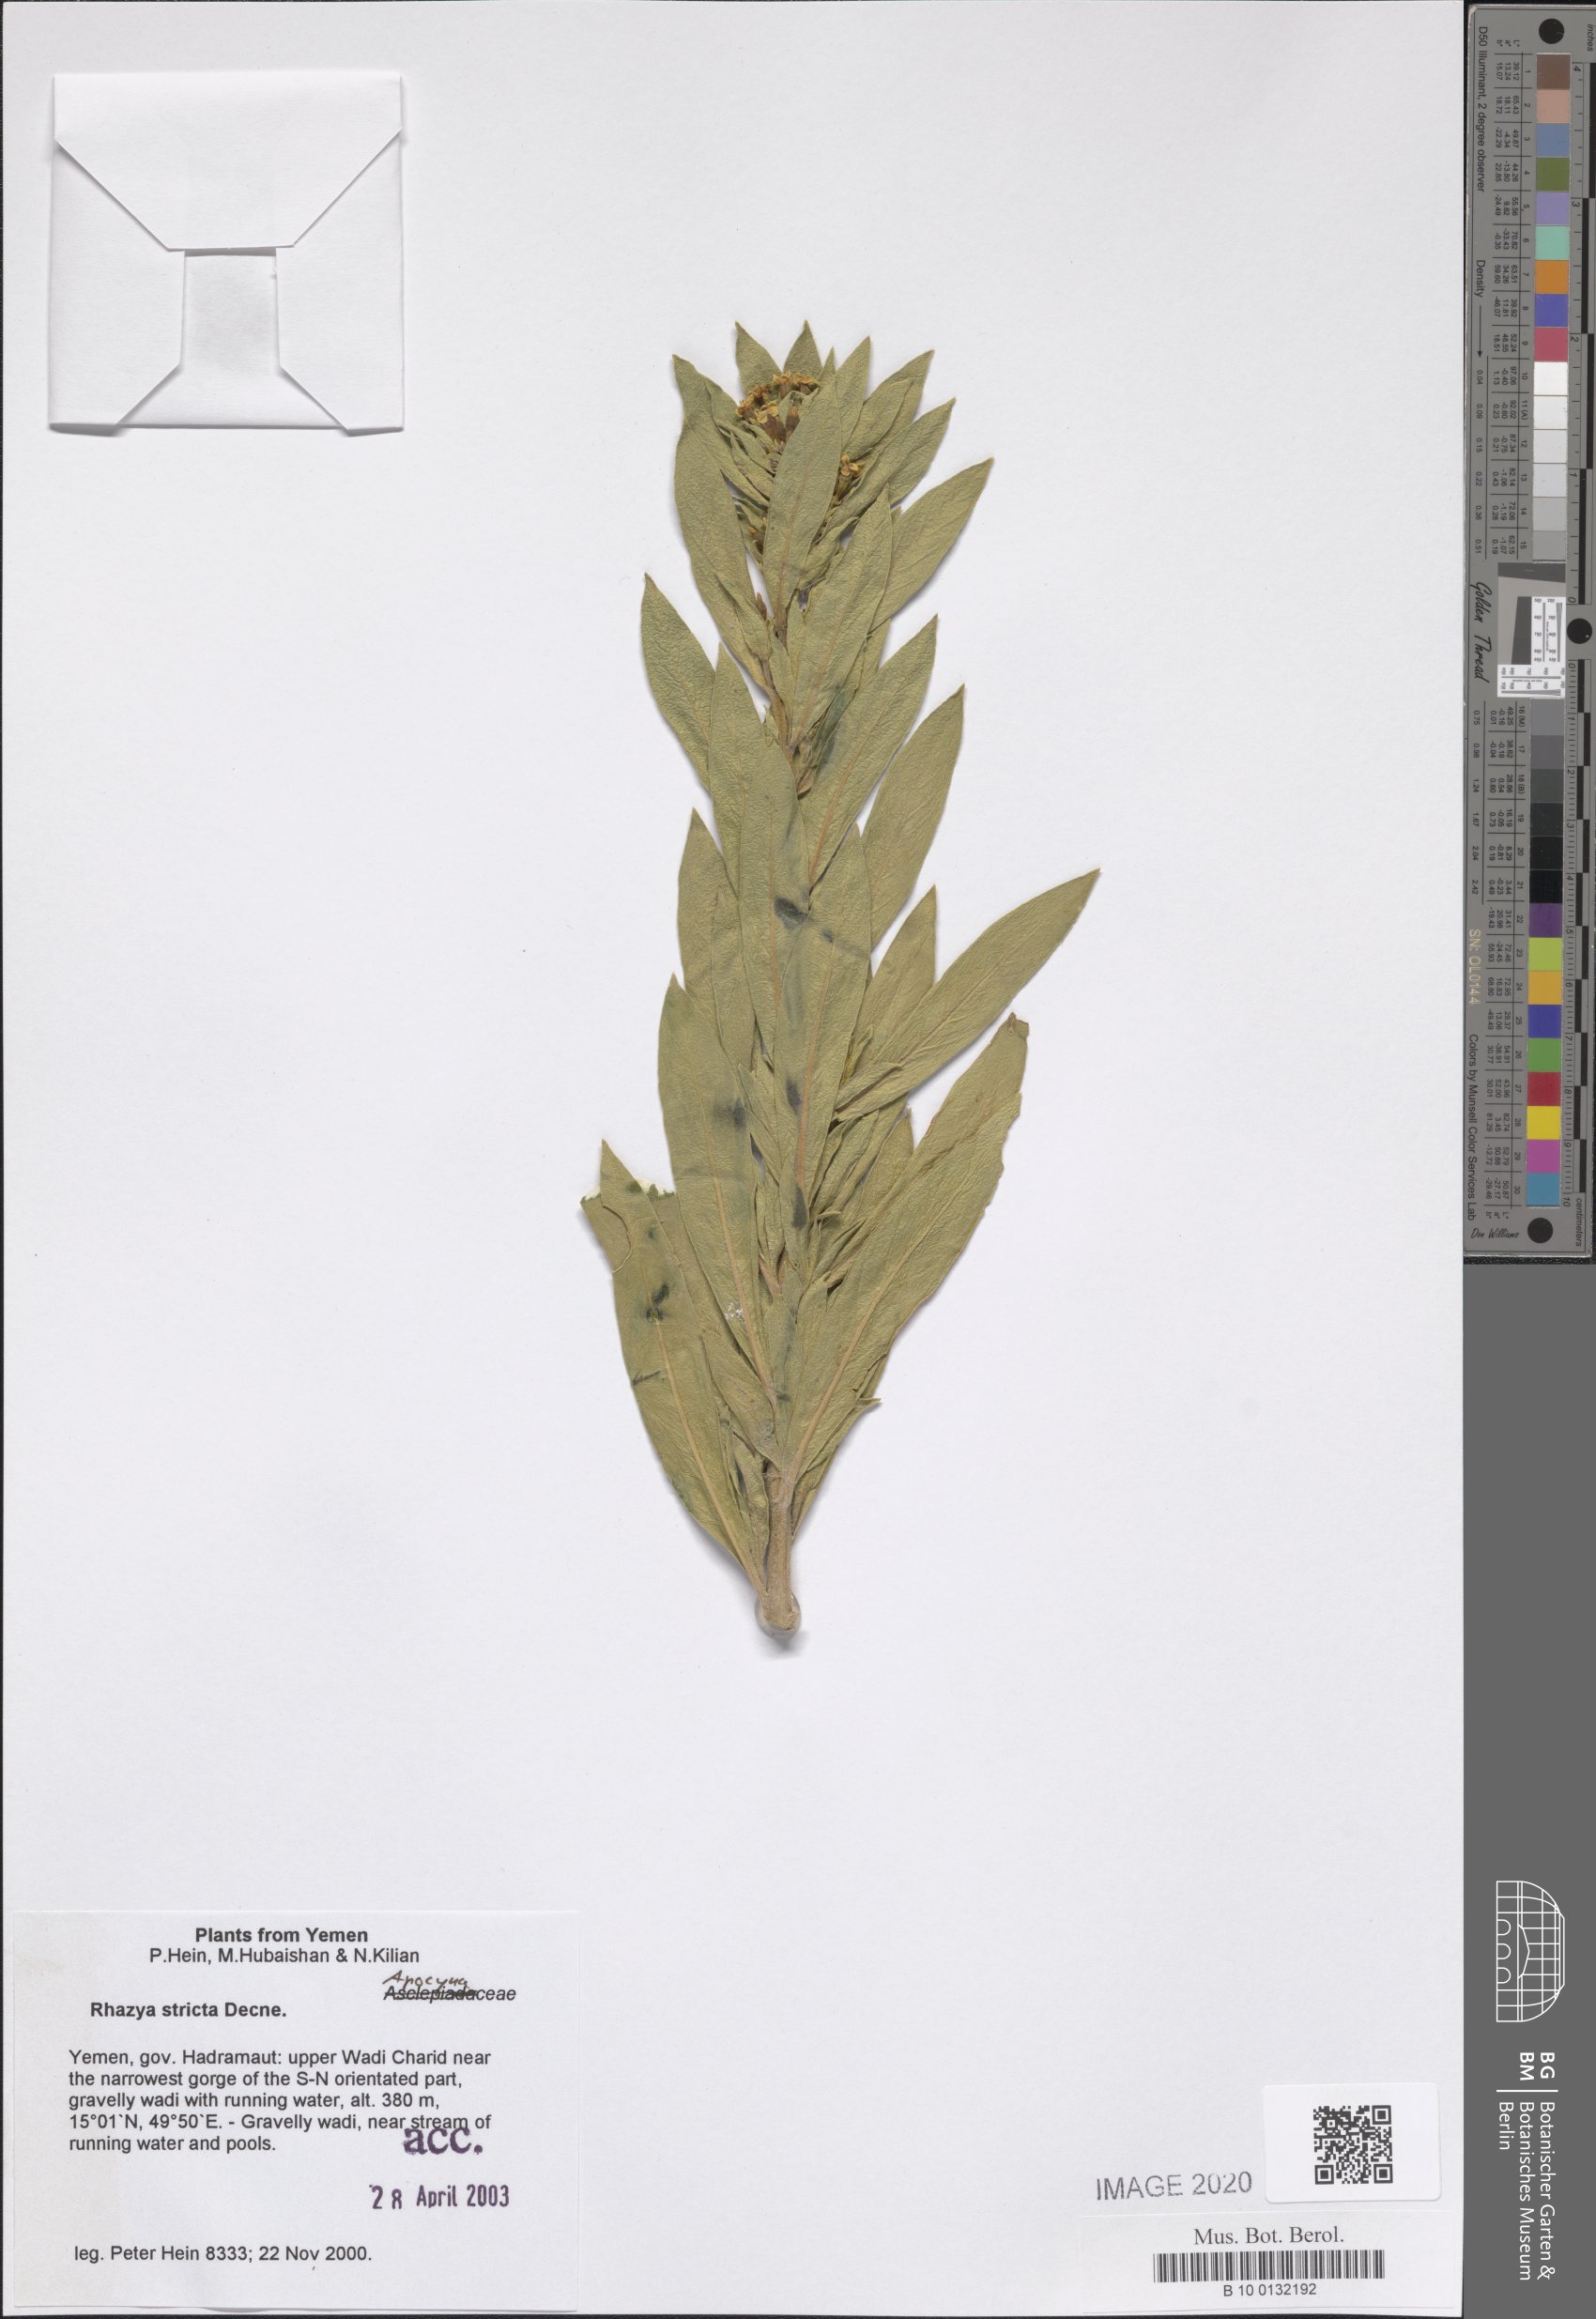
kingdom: Plantae
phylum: Tracheophyta
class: Magnoliopsida
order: Gentianales
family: Apocynaceae
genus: Rhazya
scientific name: Rhazya stricta
